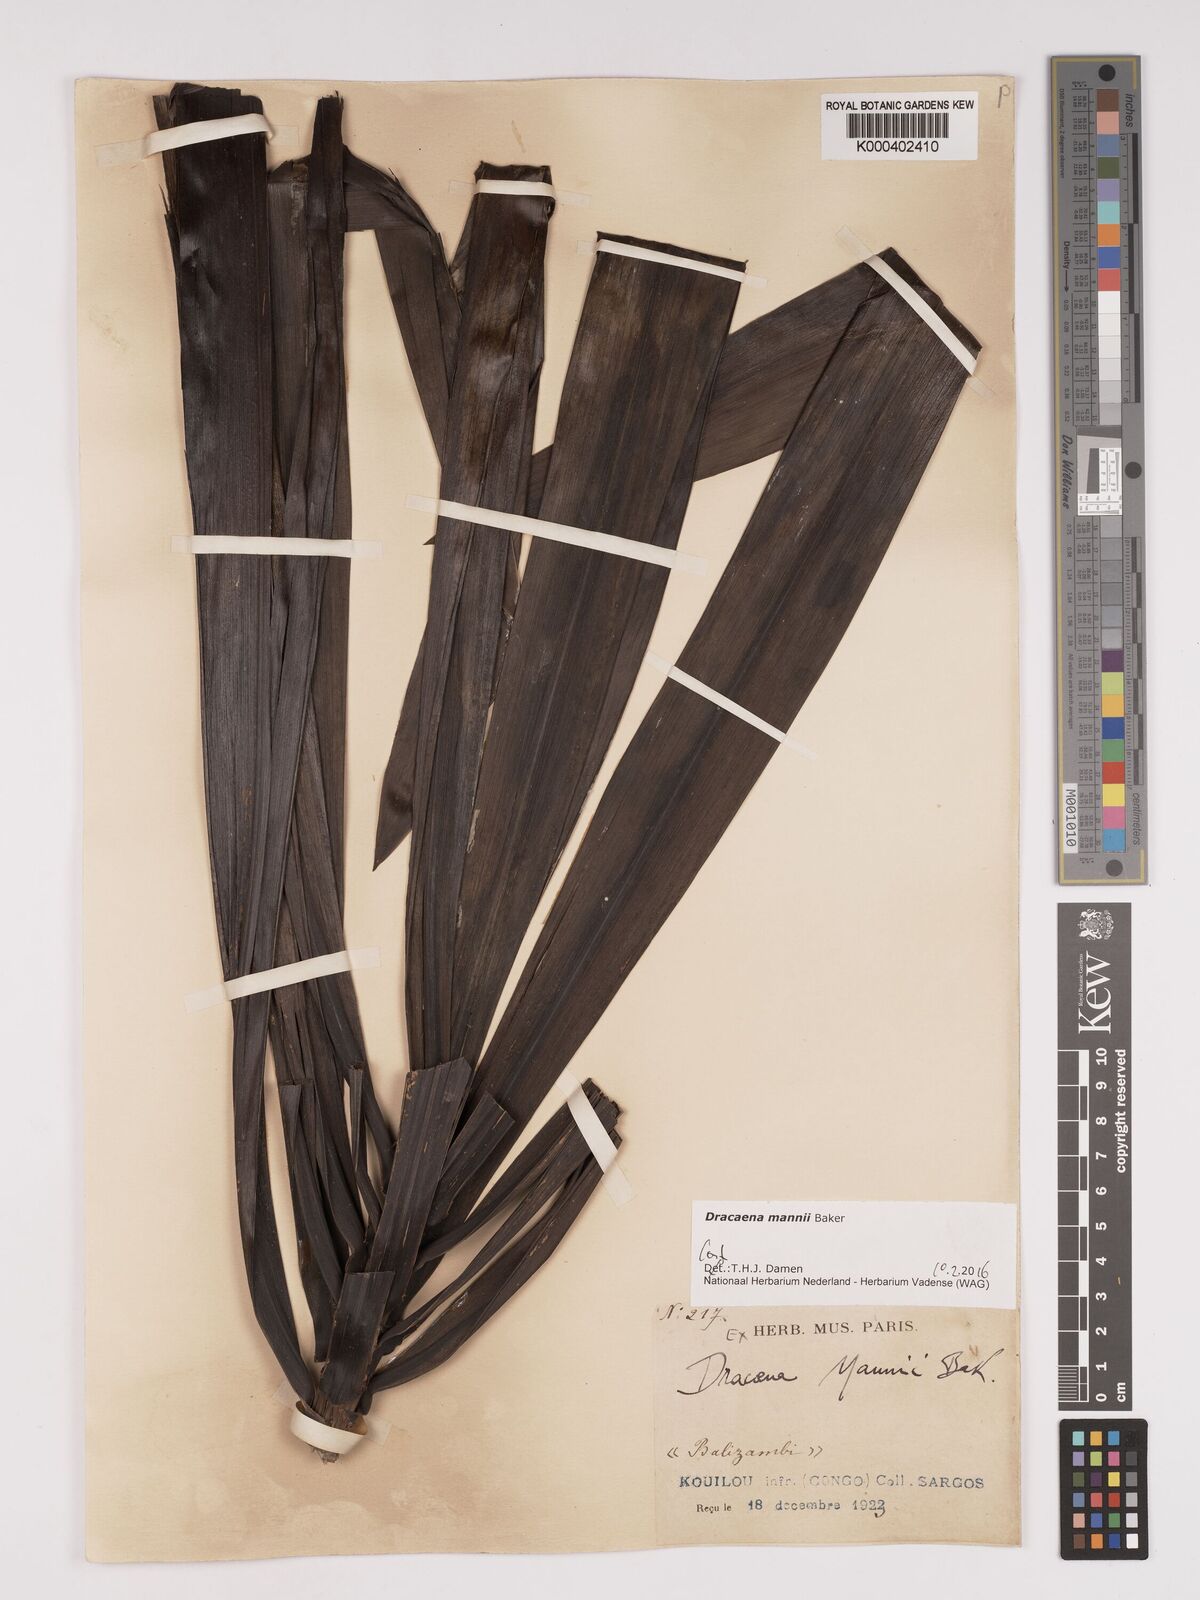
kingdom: Plantae
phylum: Tracheophyta
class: Liliopsida
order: Asparagales
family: Asparagaceae
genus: Dracaena
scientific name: Dracaena mannii
